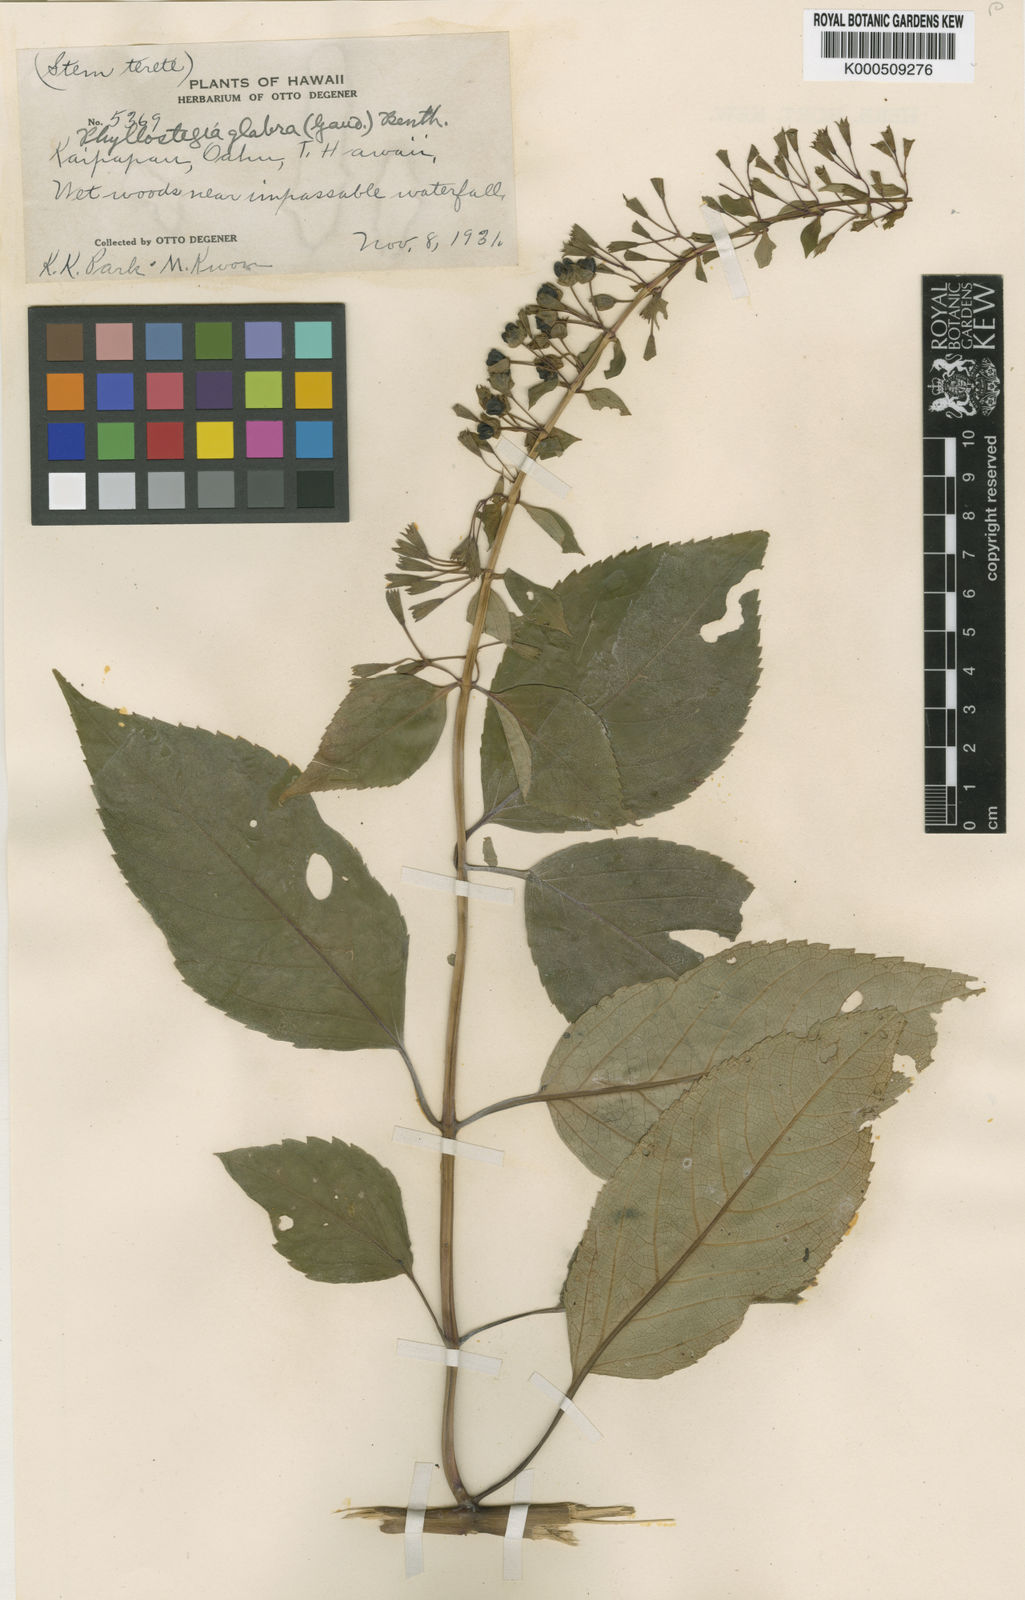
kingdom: Plantae
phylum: Tracheophyta
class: Magnoliopsida
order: Lamiales
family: Lamiaceae
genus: Phyllostegia
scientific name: Phyllostegia glabra
